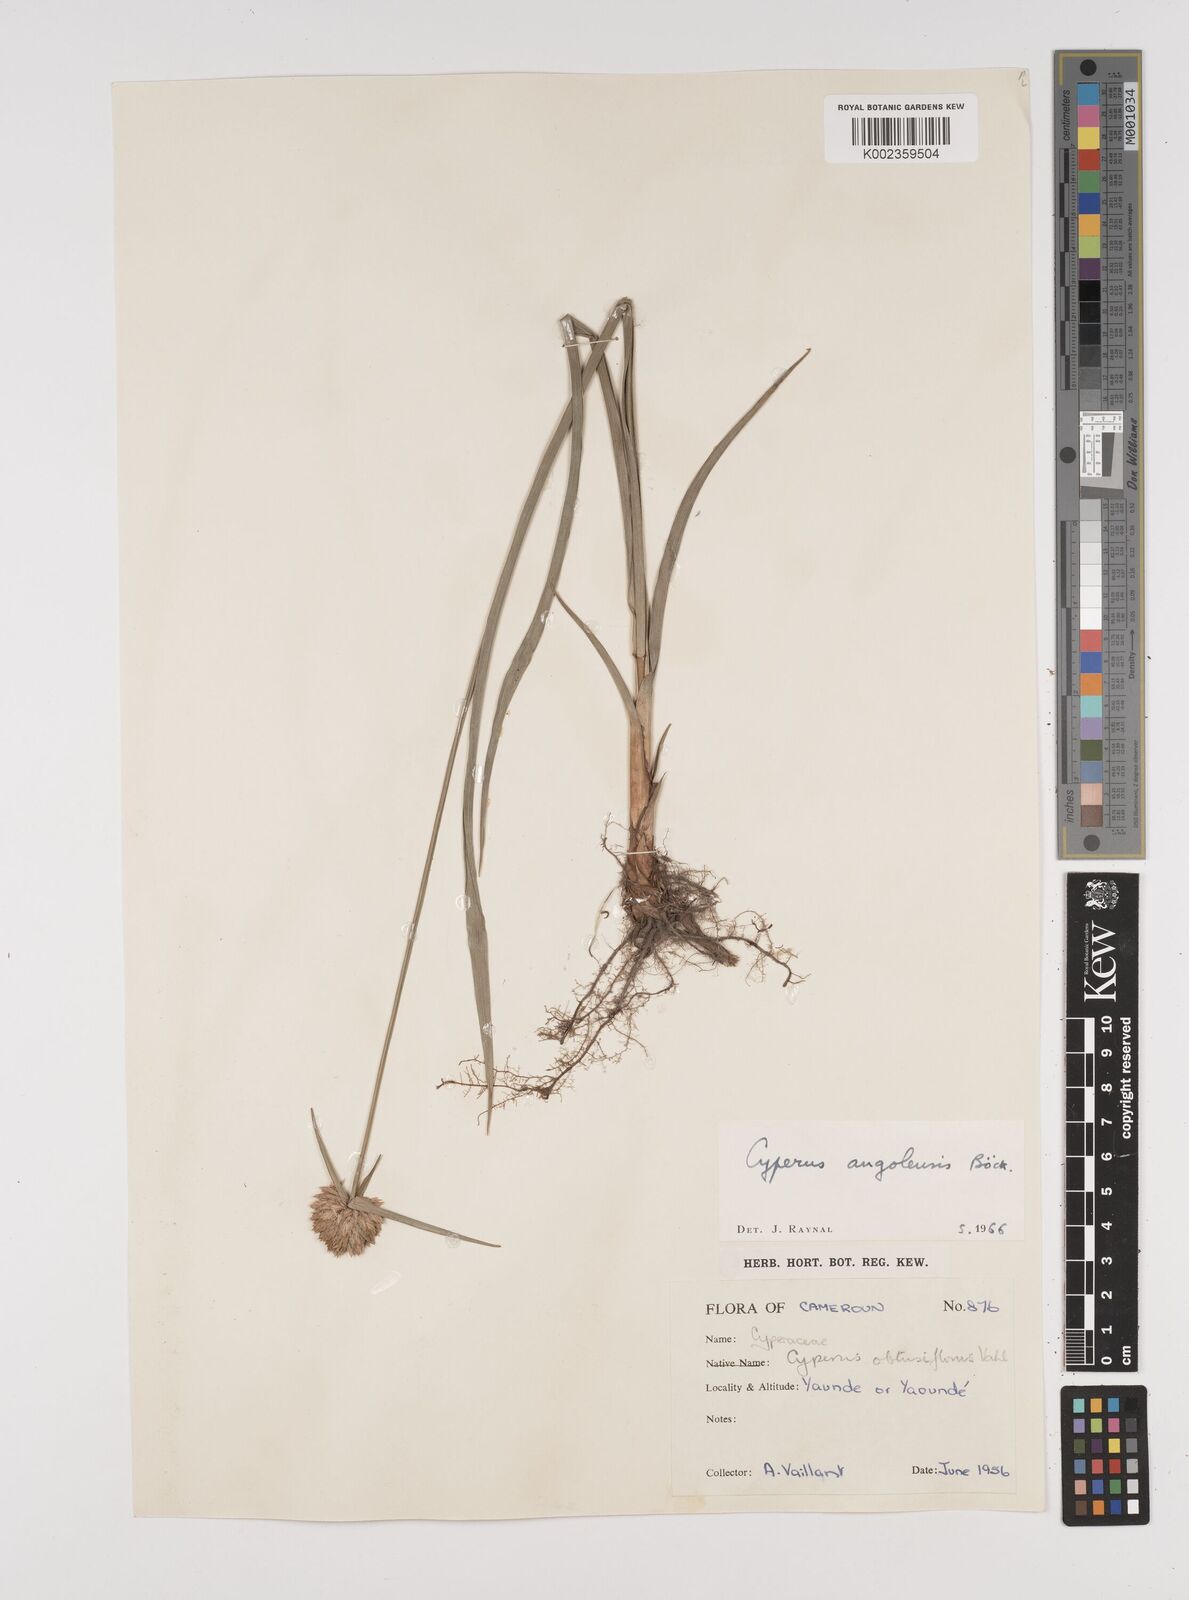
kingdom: Plantae
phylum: Tracheophyta
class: Liliopsida
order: Poales
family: Cyperaceae
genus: Cyperus
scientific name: Cyperus angolensis
